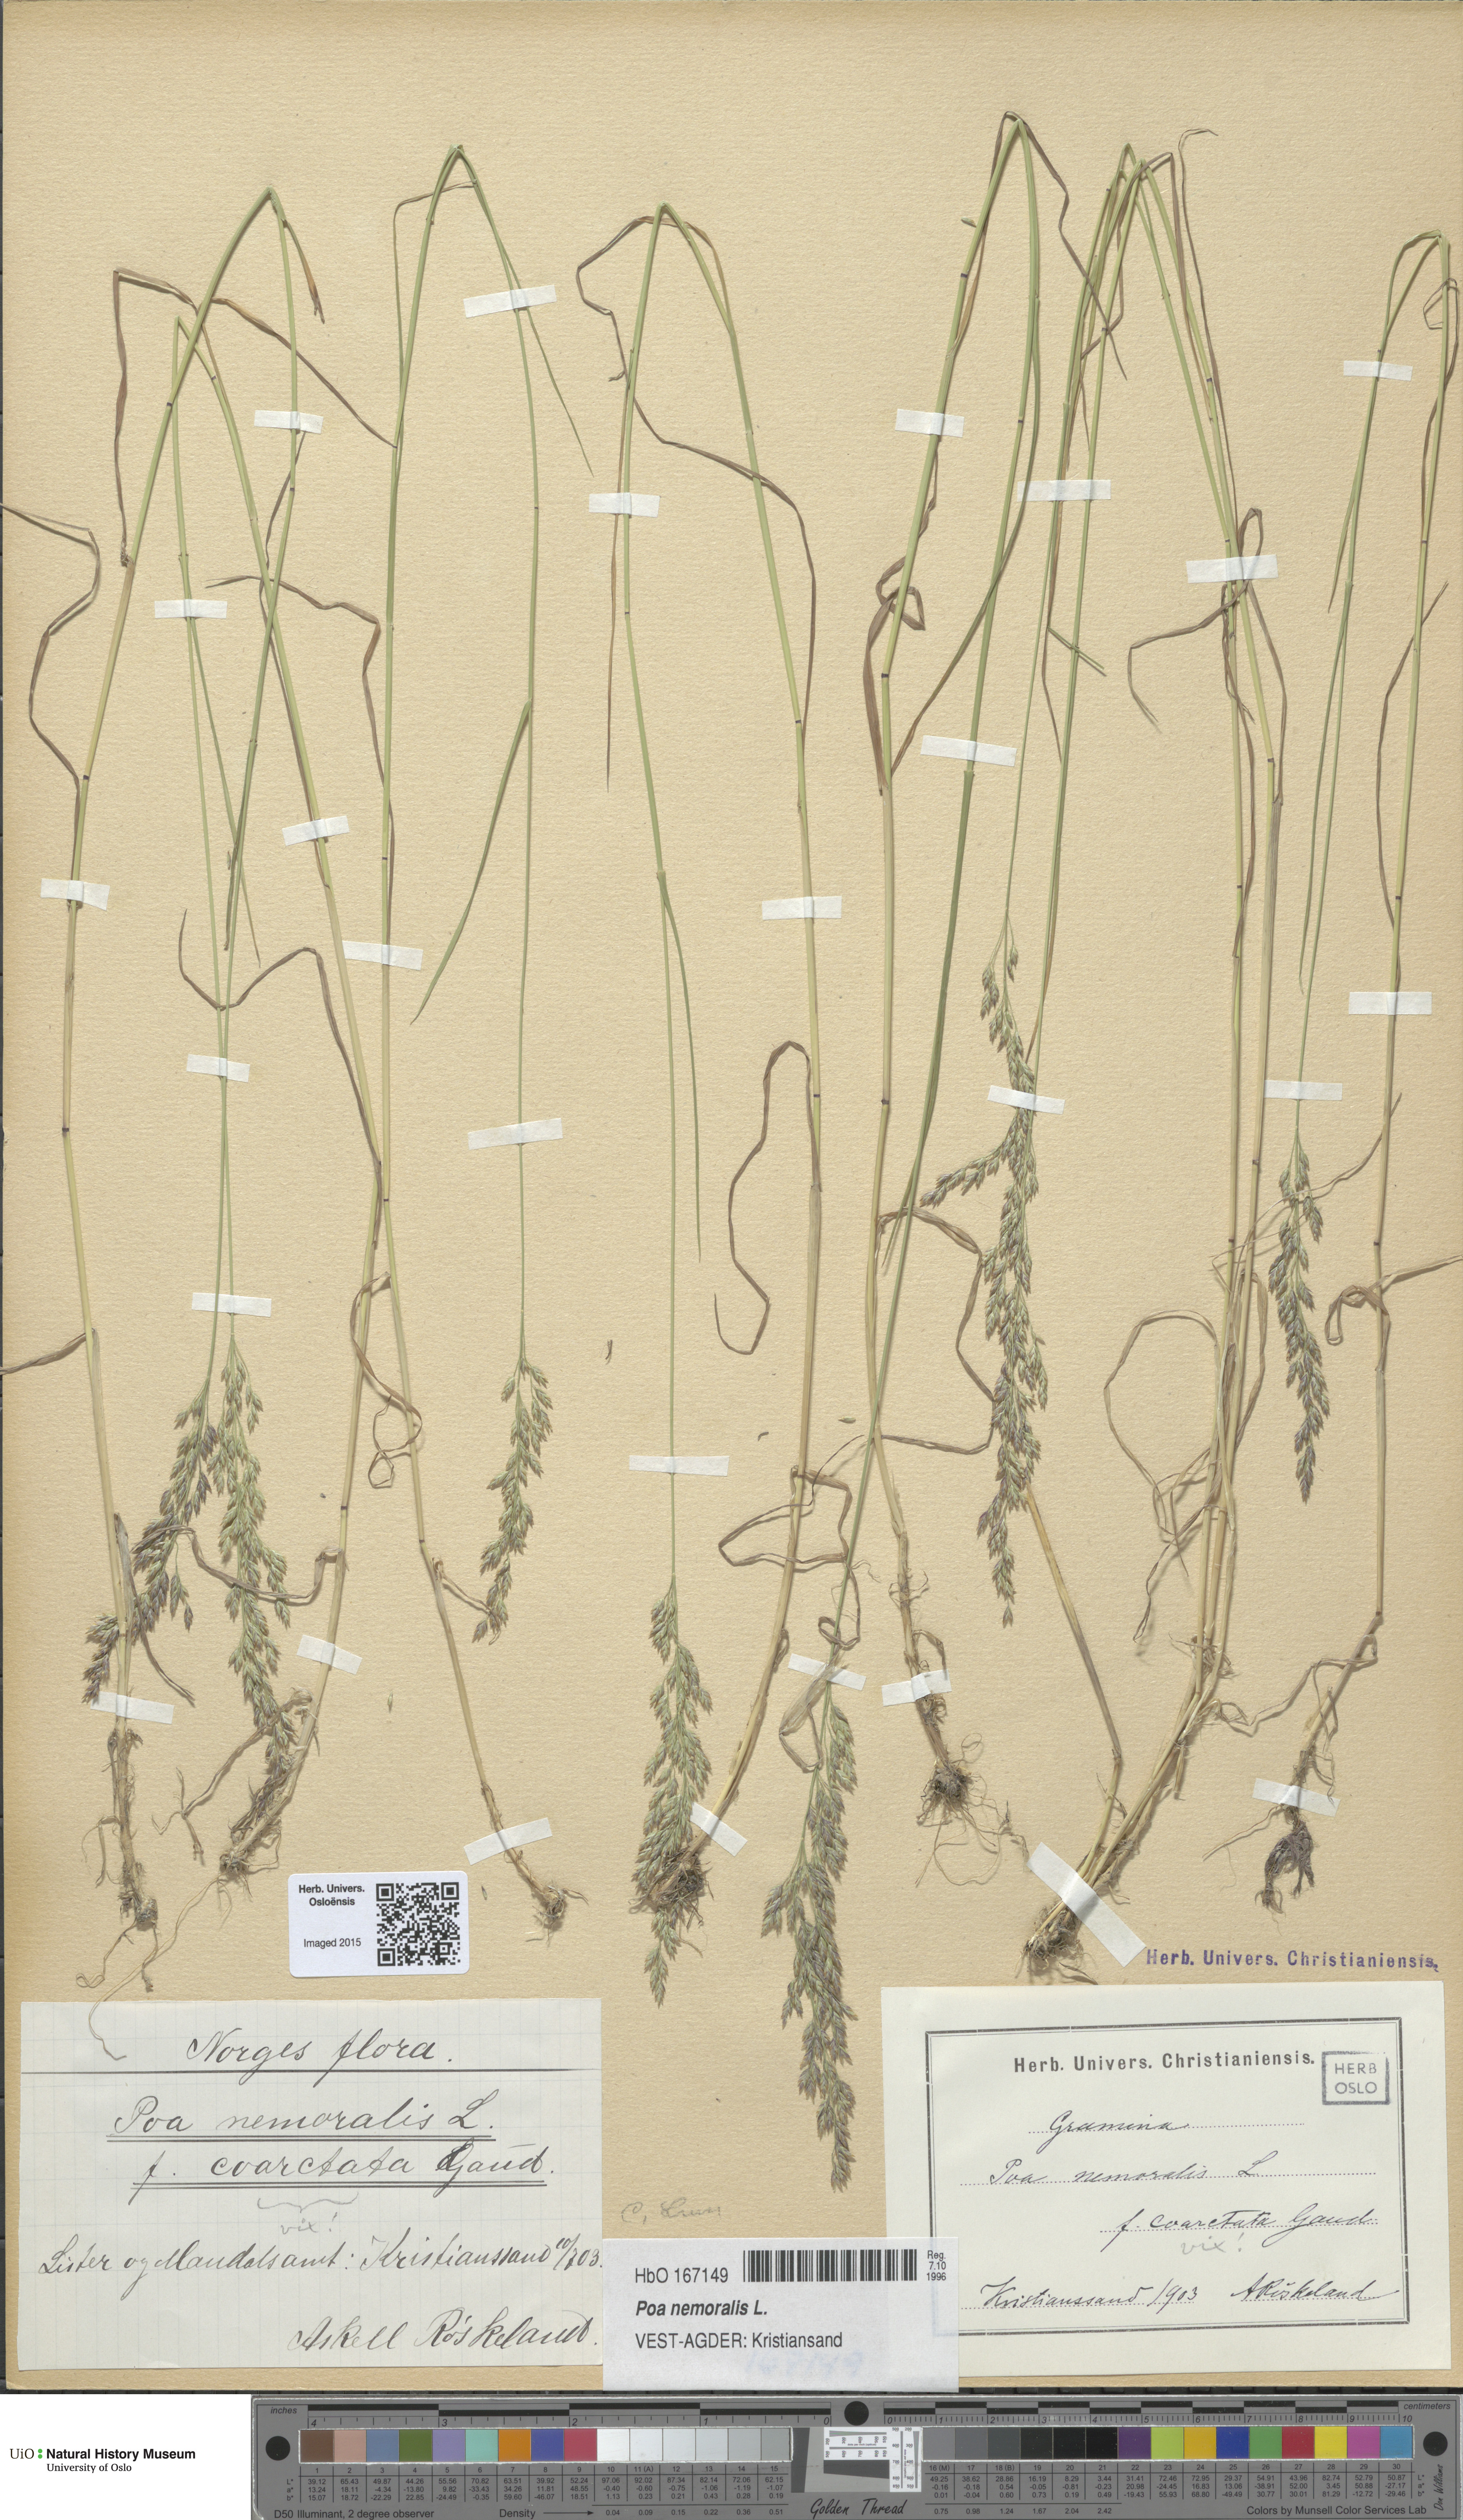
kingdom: Plantae
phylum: Tracheophyta
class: Liliopsida
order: Poales
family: Poaceae
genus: Poa
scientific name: Poa nemoralis
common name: Wood bluegrass
